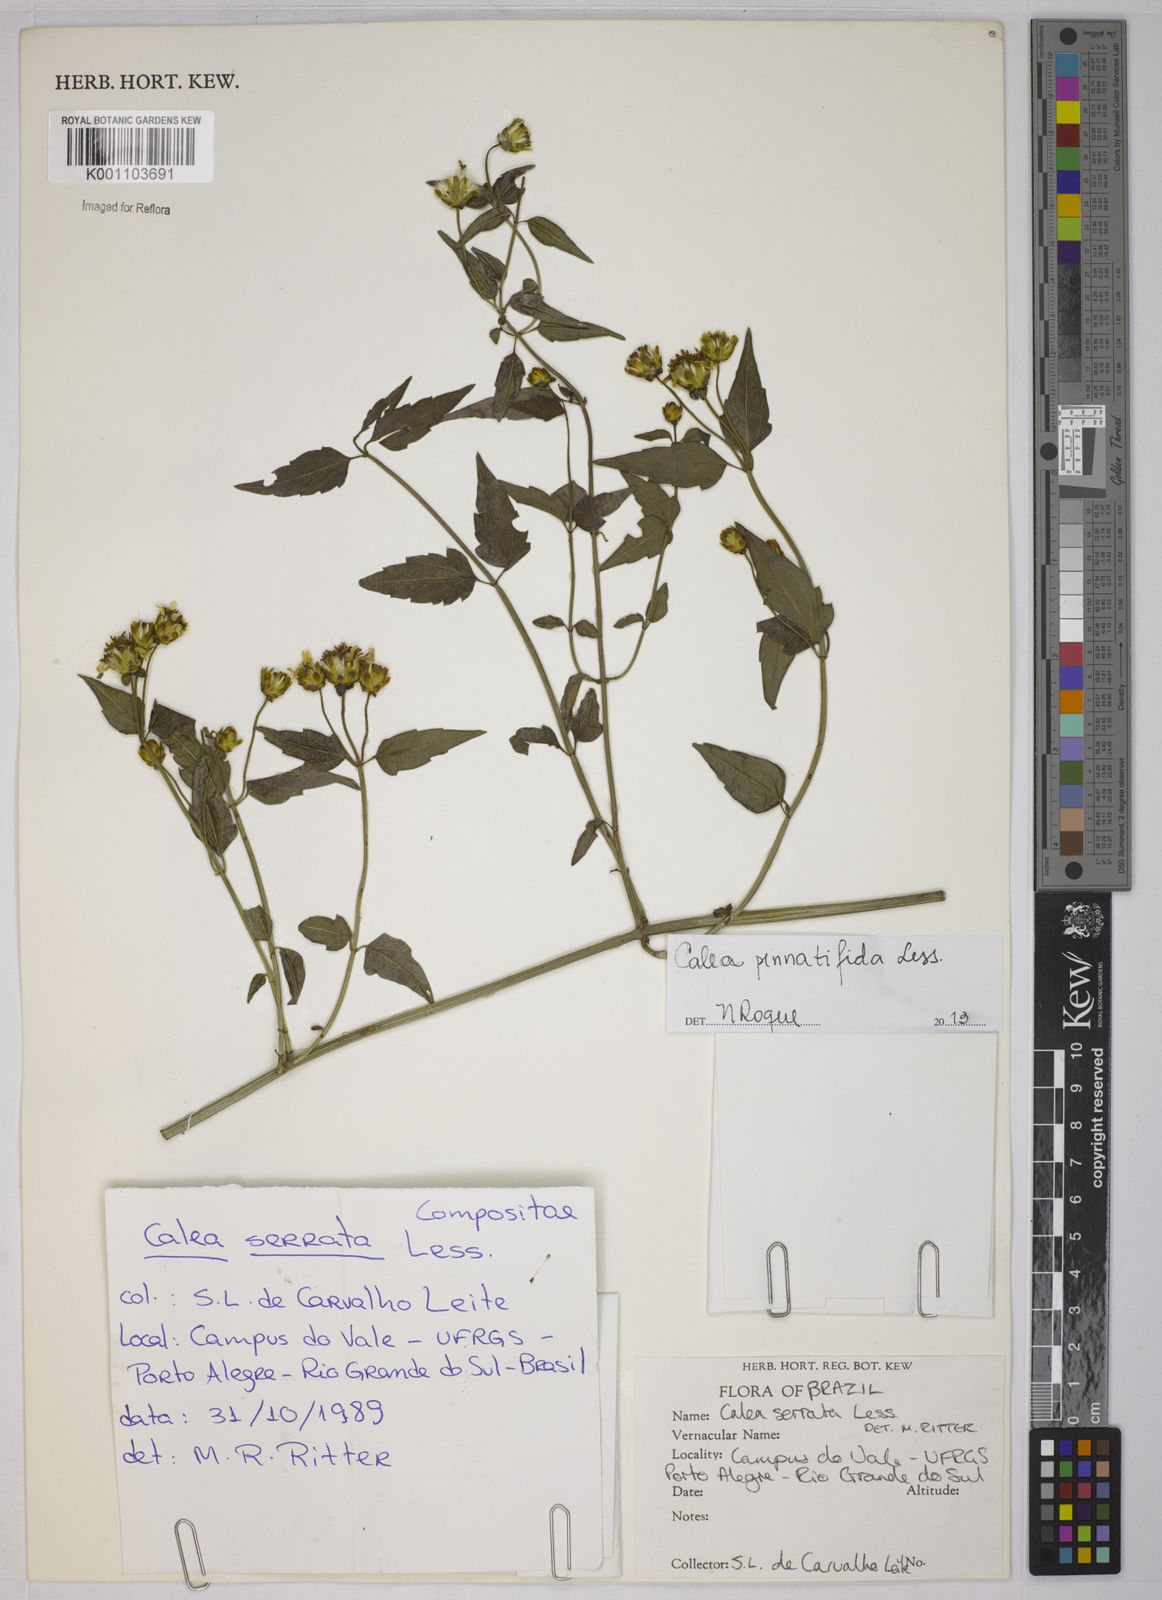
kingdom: Plantae
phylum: Tracheophyta
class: Magnoliopsida
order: Asterales
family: Asteraceae
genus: Calea
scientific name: Calea
